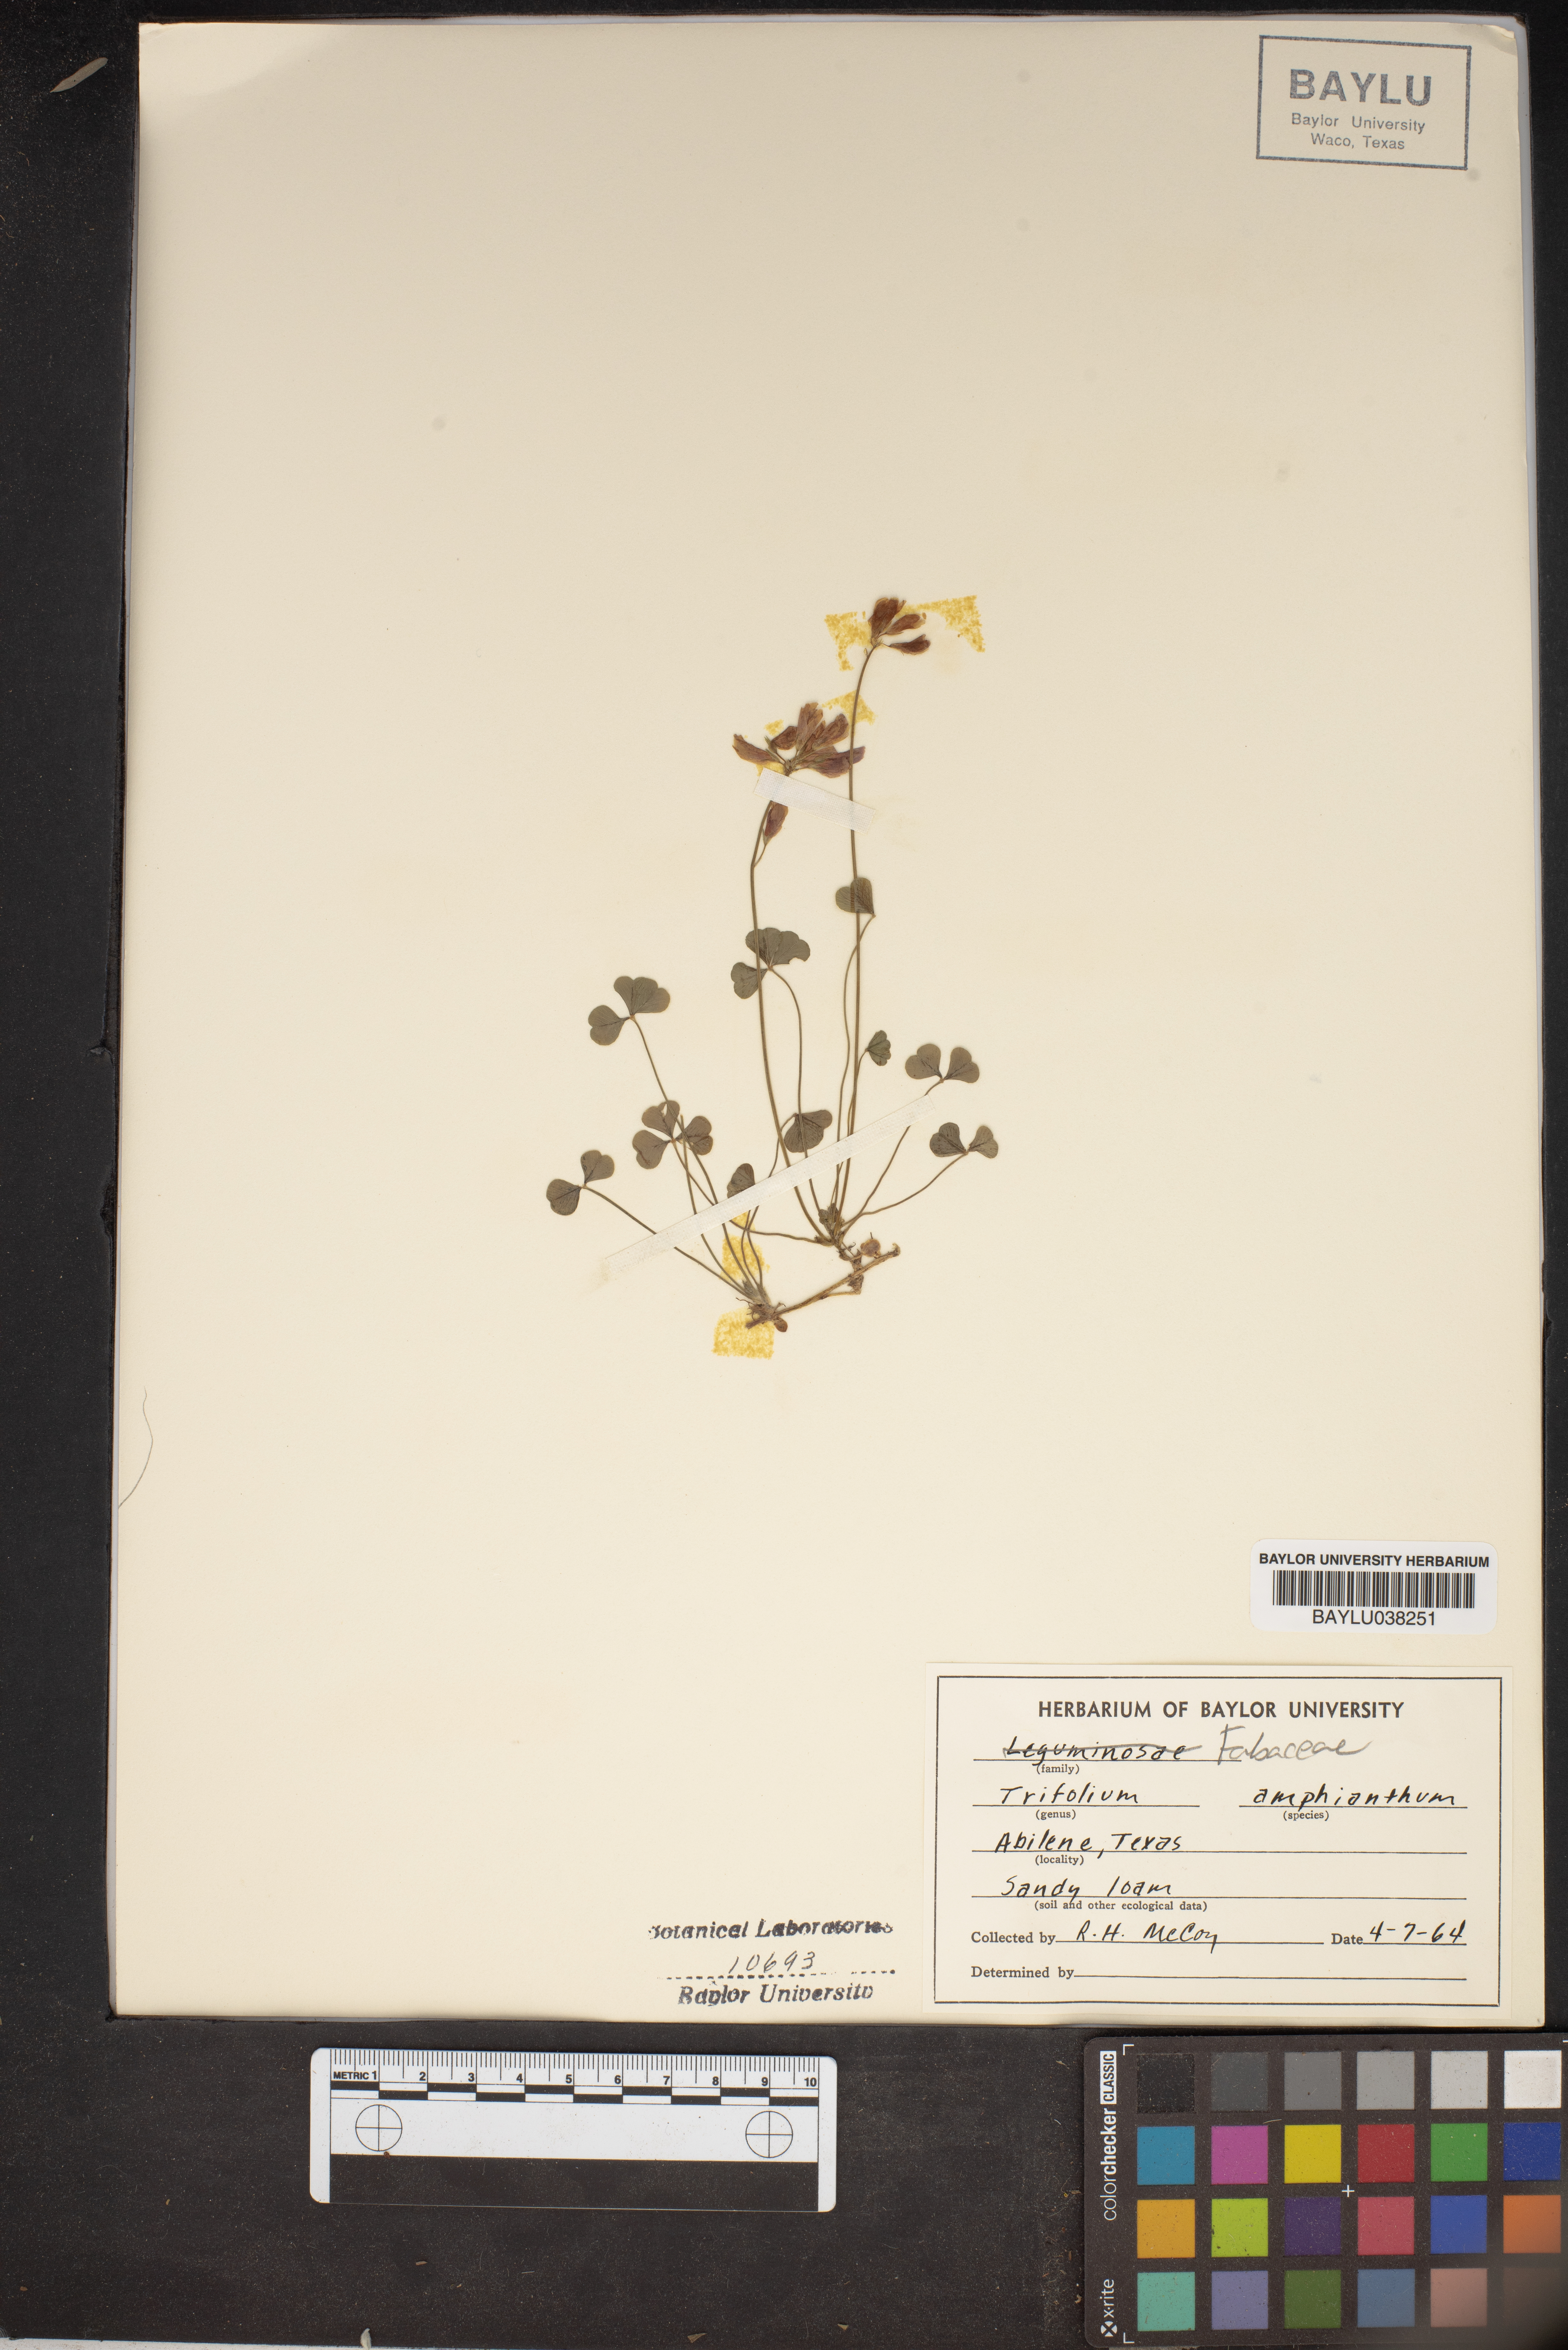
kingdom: Plantae
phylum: Tracheophyta
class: Magnoliopsida
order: Fabales
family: Fabaceae
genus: Trifolium
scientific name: Trifolium amphianthum
